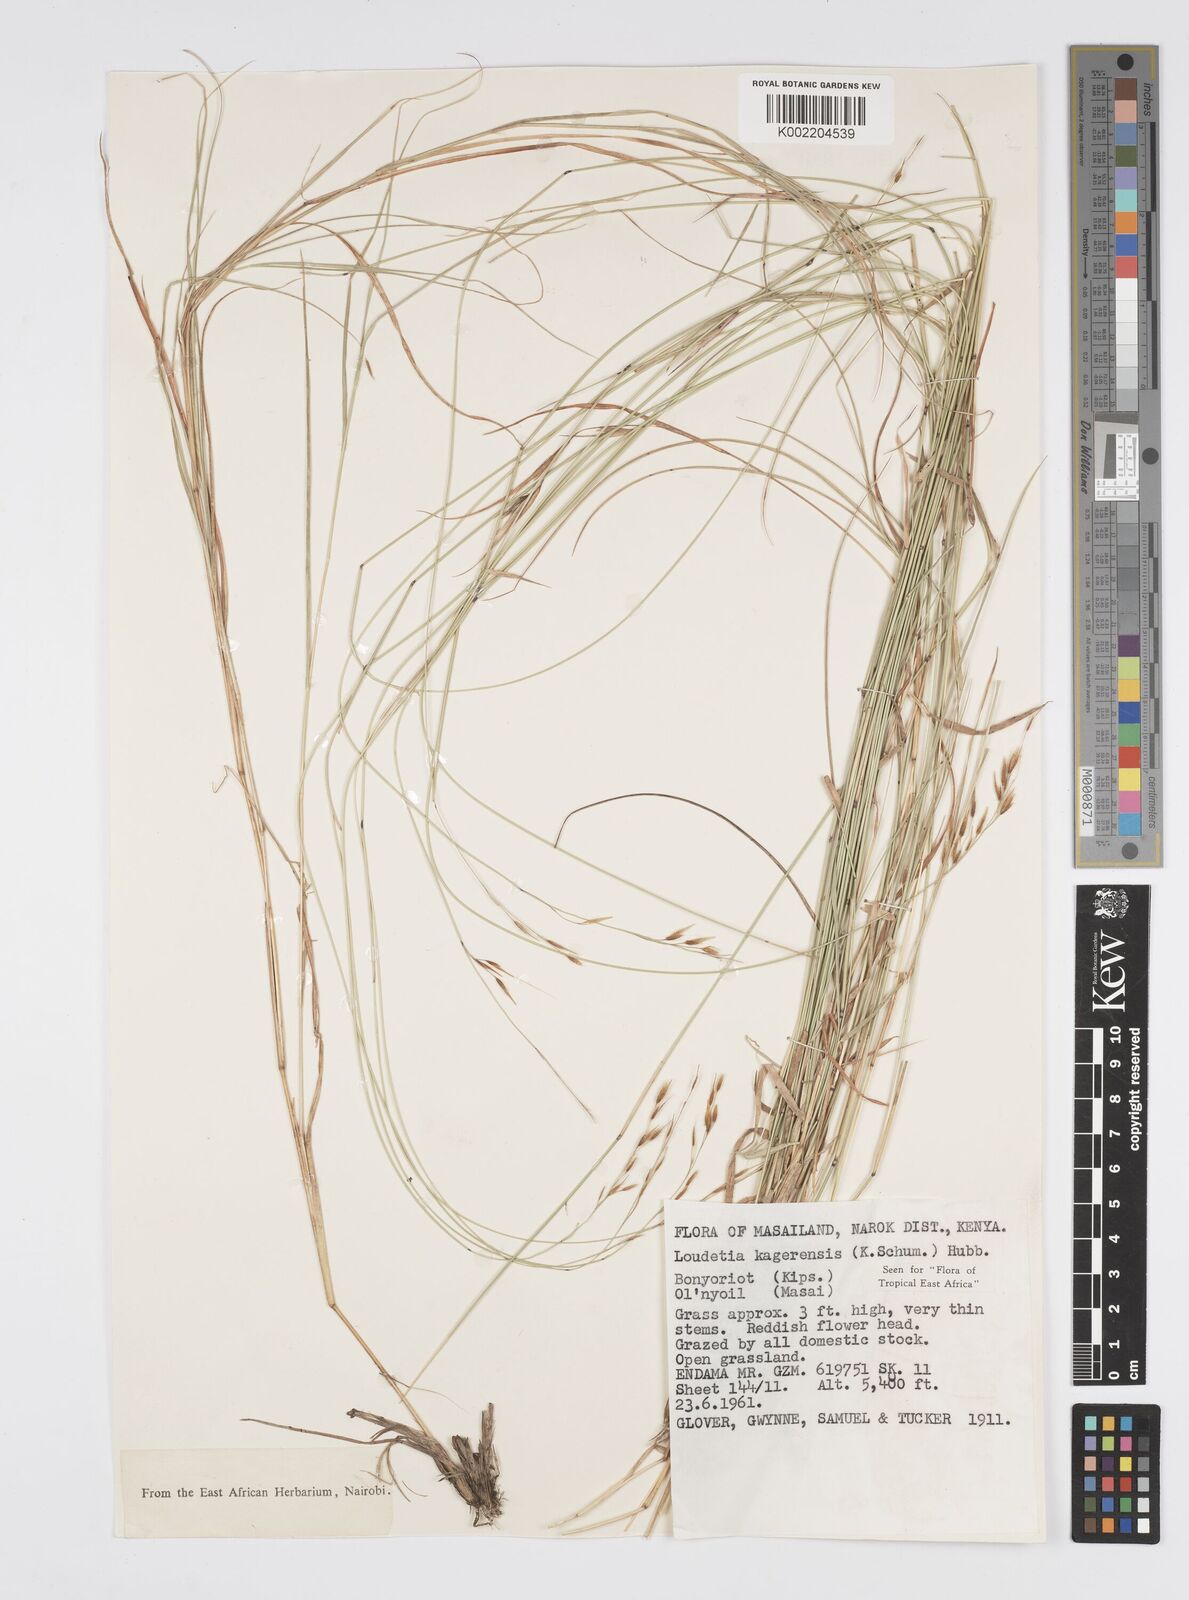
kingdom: Plantae
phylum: Tracheophyta
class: Liliopsida
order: Poales
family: Poaceae
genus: Loudetia
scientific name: Loudetia kagerensis
